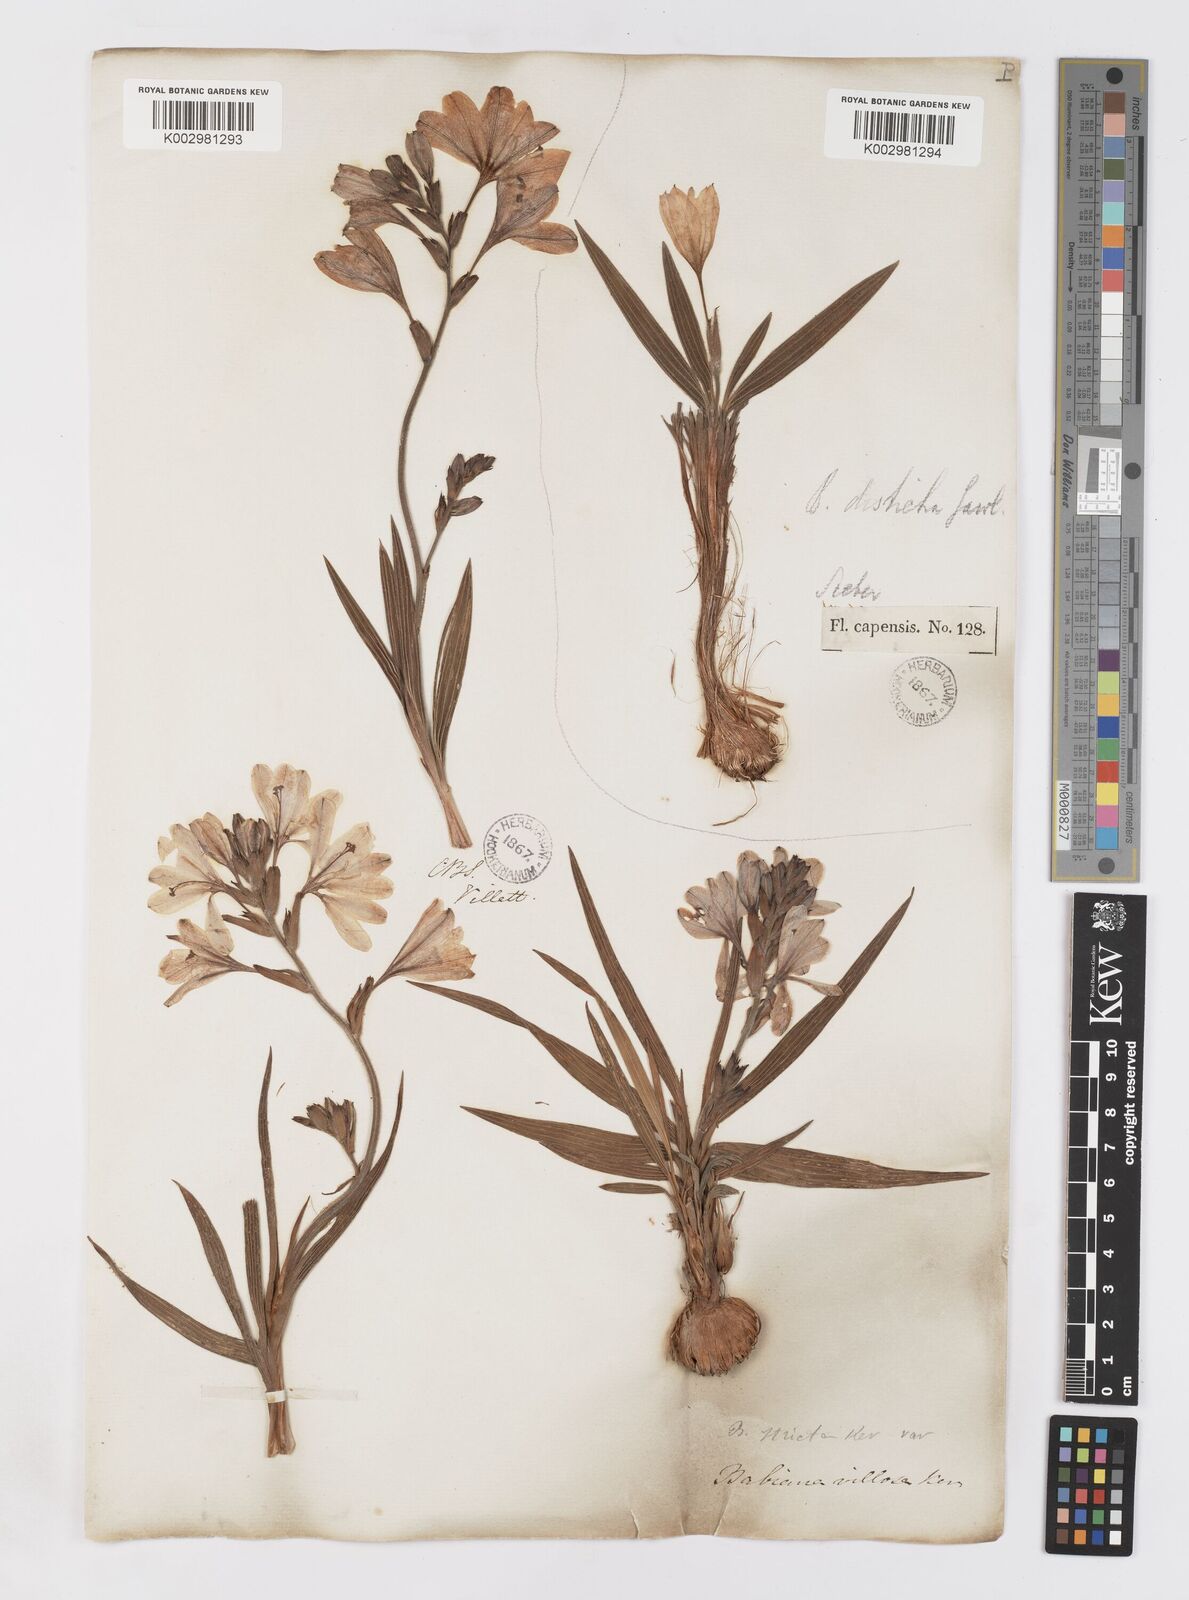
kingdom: Plantae
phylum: Tracheophyta
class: Liliopsida
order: Asparagales
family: Iridaceae
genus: Babiana
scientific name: Babiana nervosa
